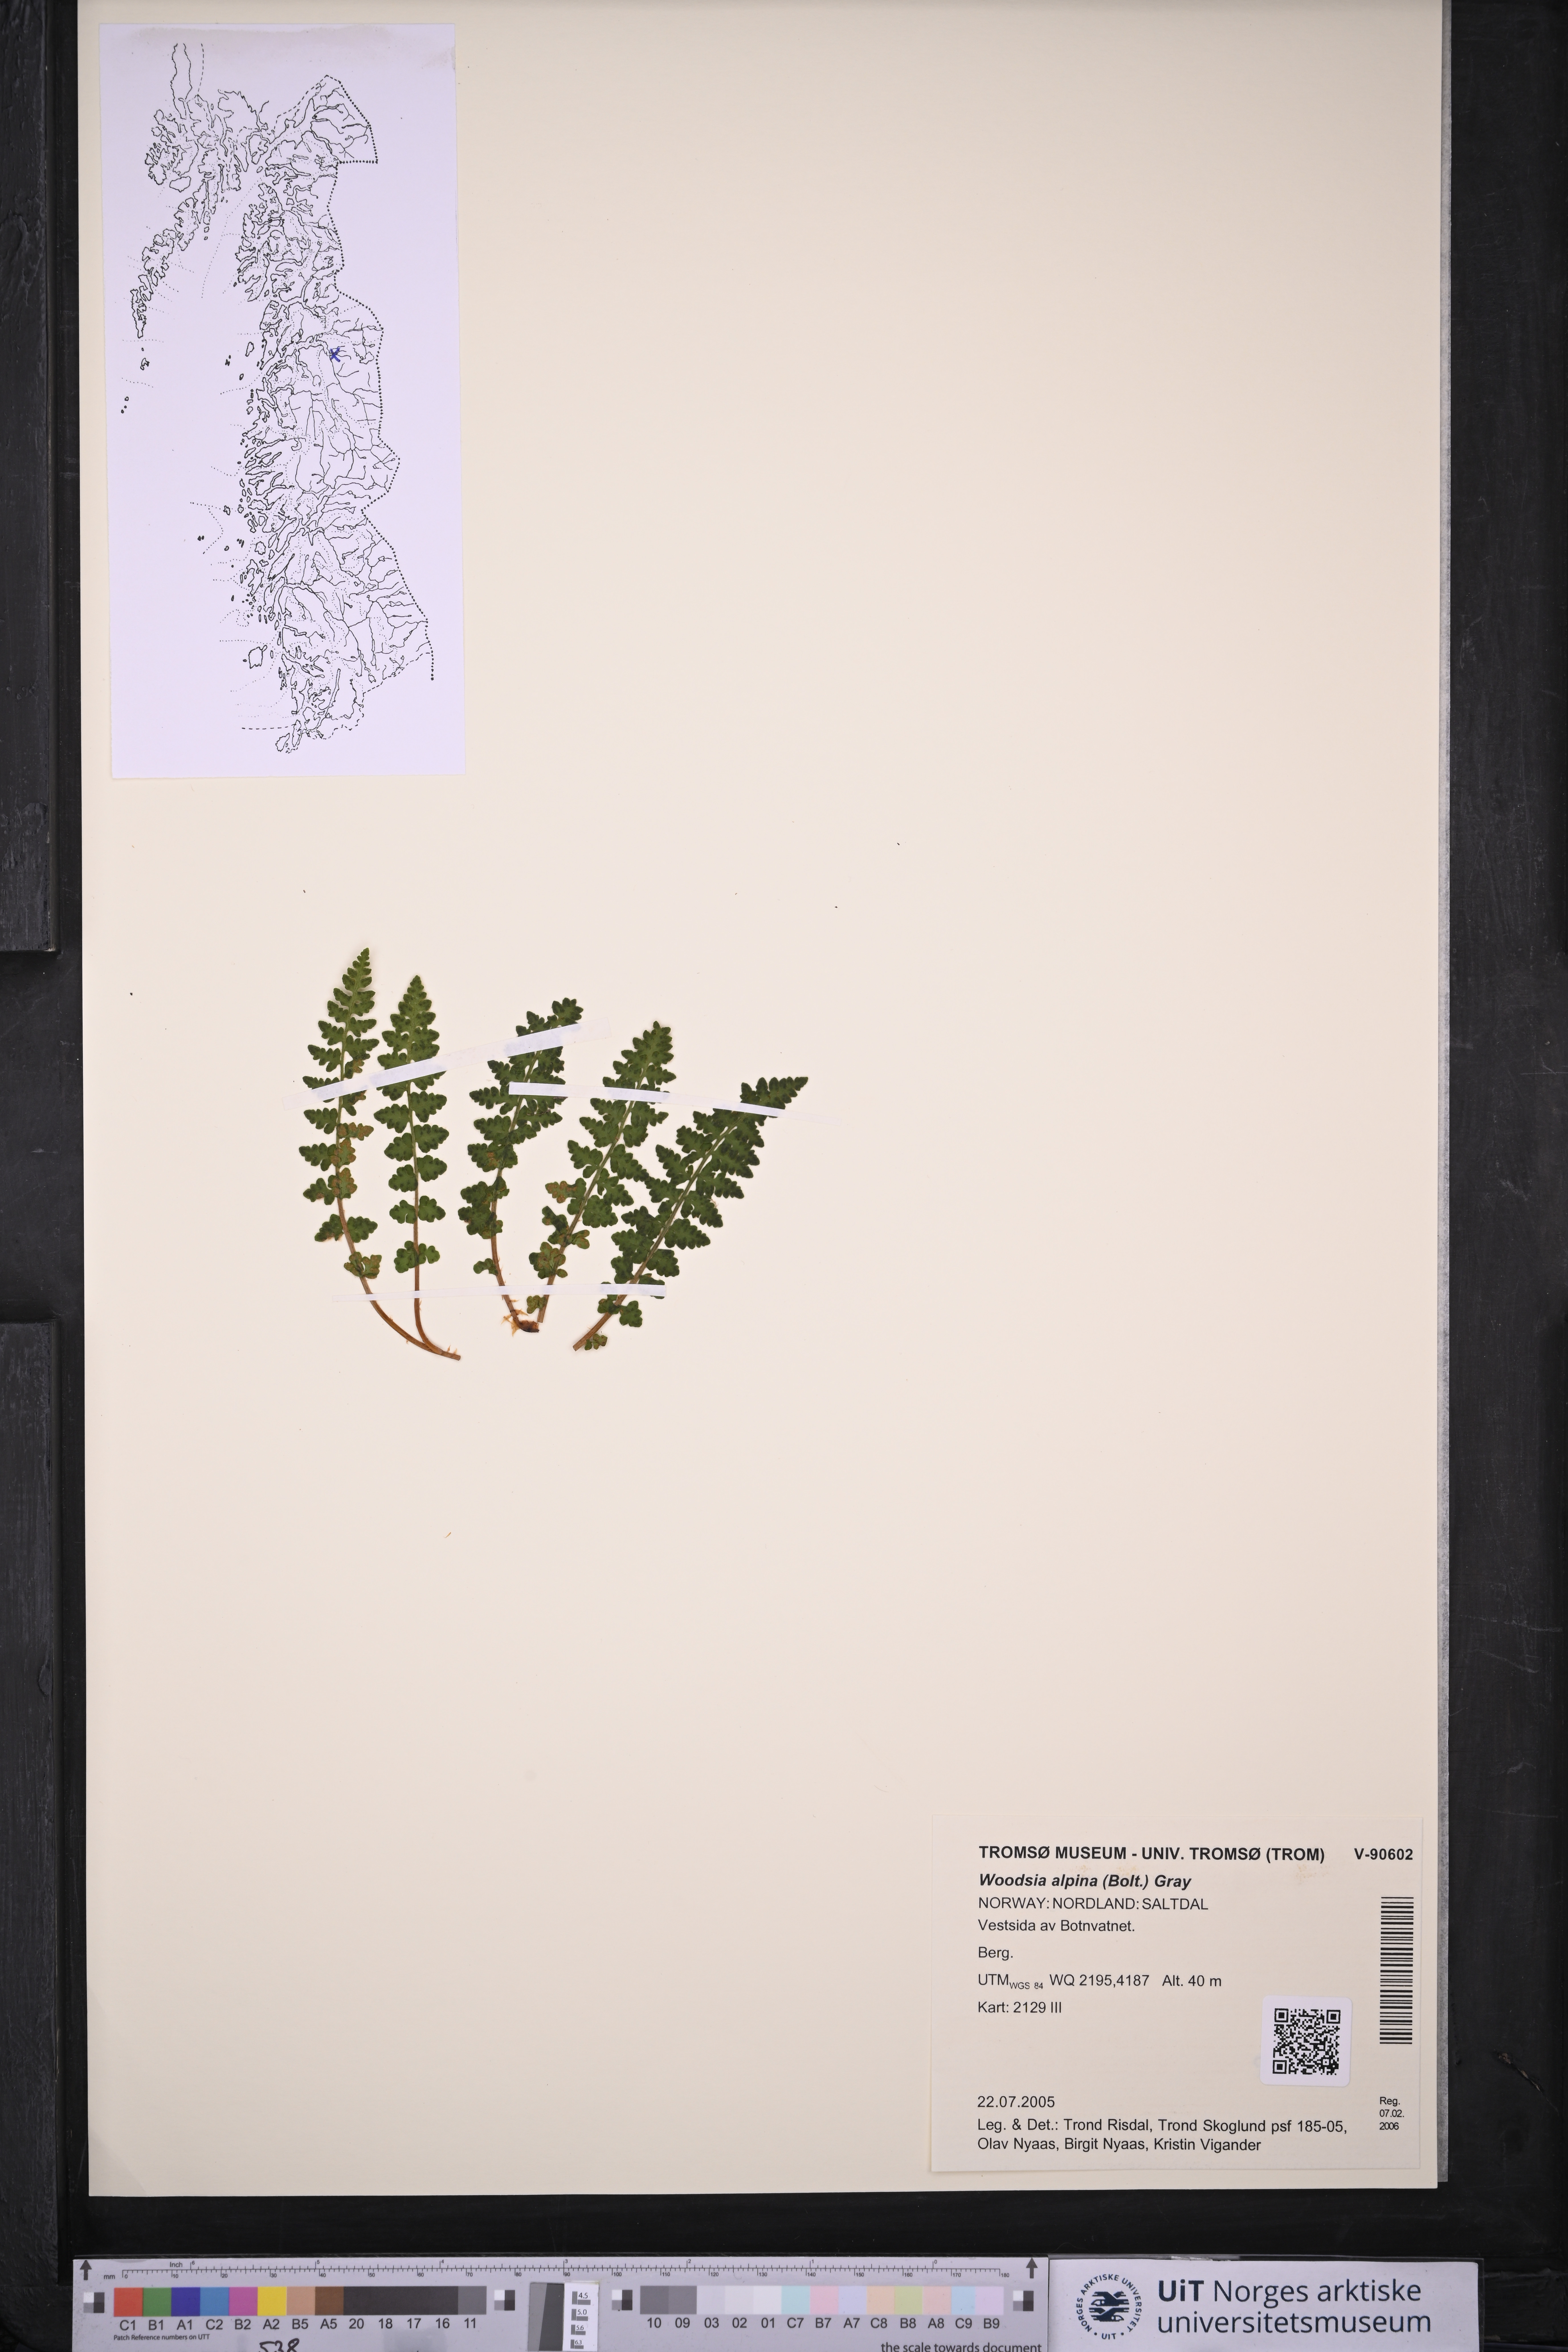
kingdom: Plantae
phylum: Tracheophyta
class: Polypodiopsida
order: Polypodiales
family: Woodsiaceae
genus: Woodsia
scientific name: Woodsia alpina
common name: Alpine woodsia
